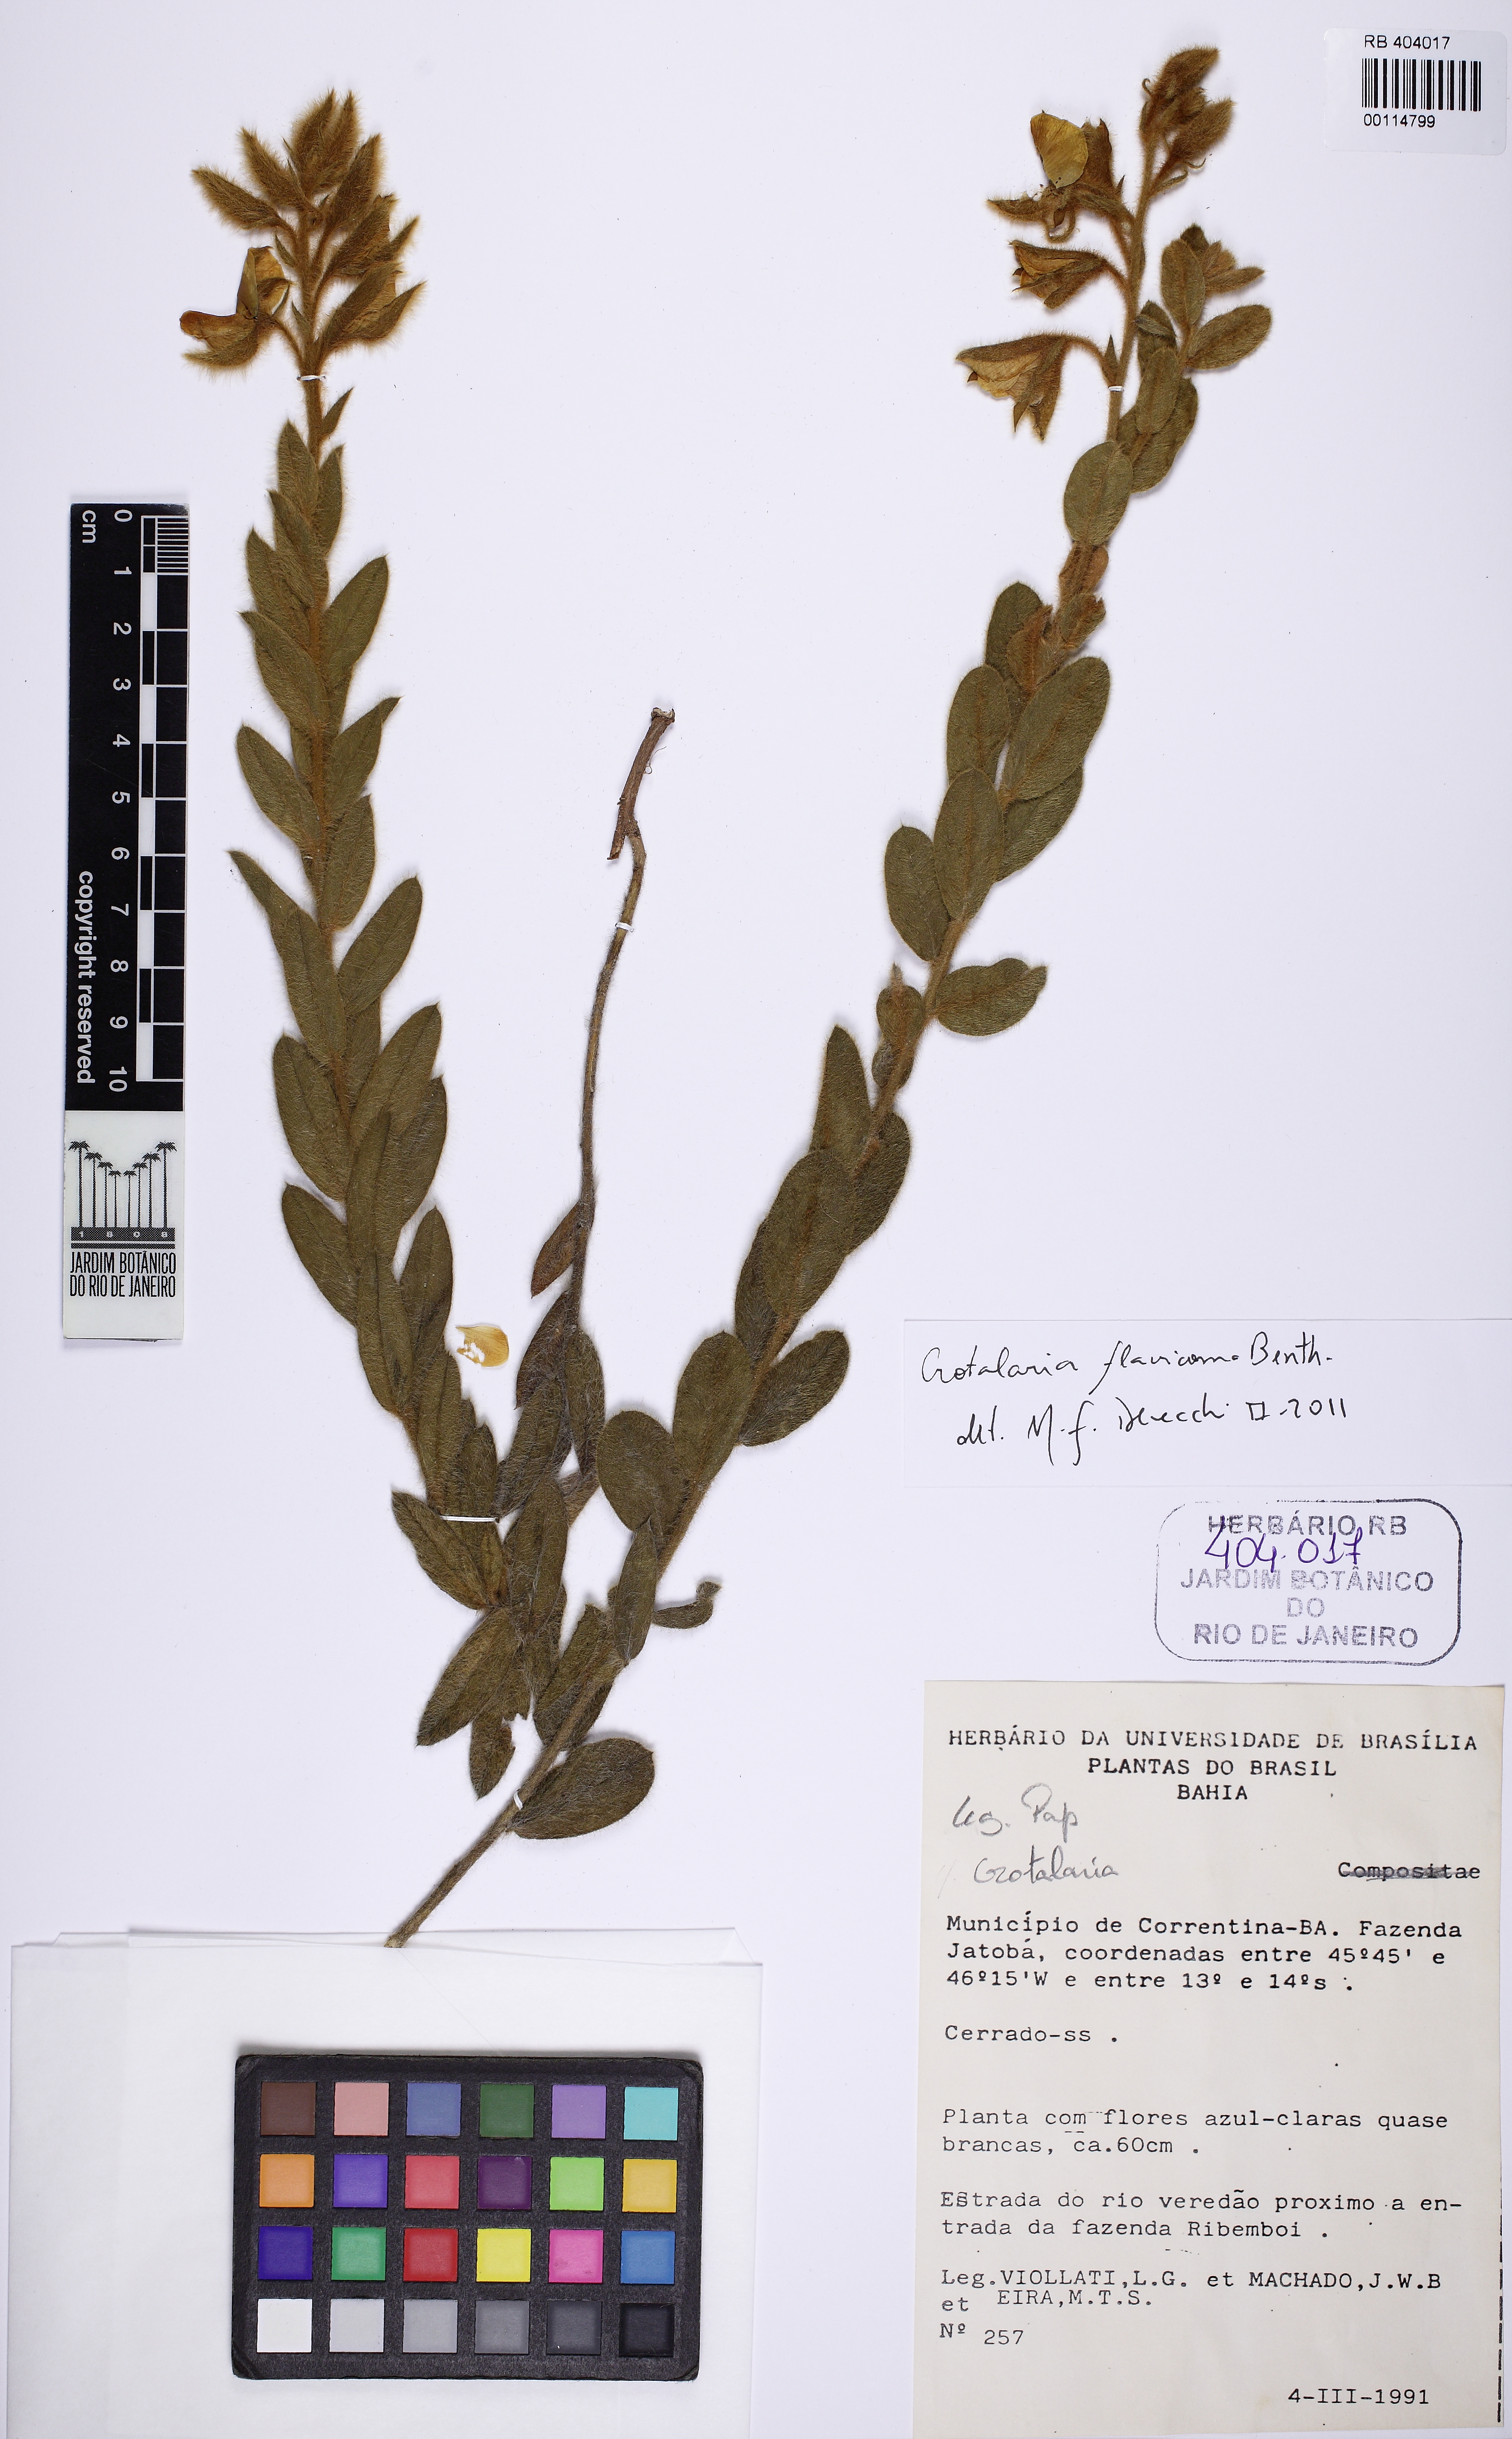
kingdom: Plantae
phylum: Tracheophyta
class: Magnoliopsida
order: Fabales
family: Fabaceae
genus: Crotalaria
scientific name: Crotalaria flavicoma
